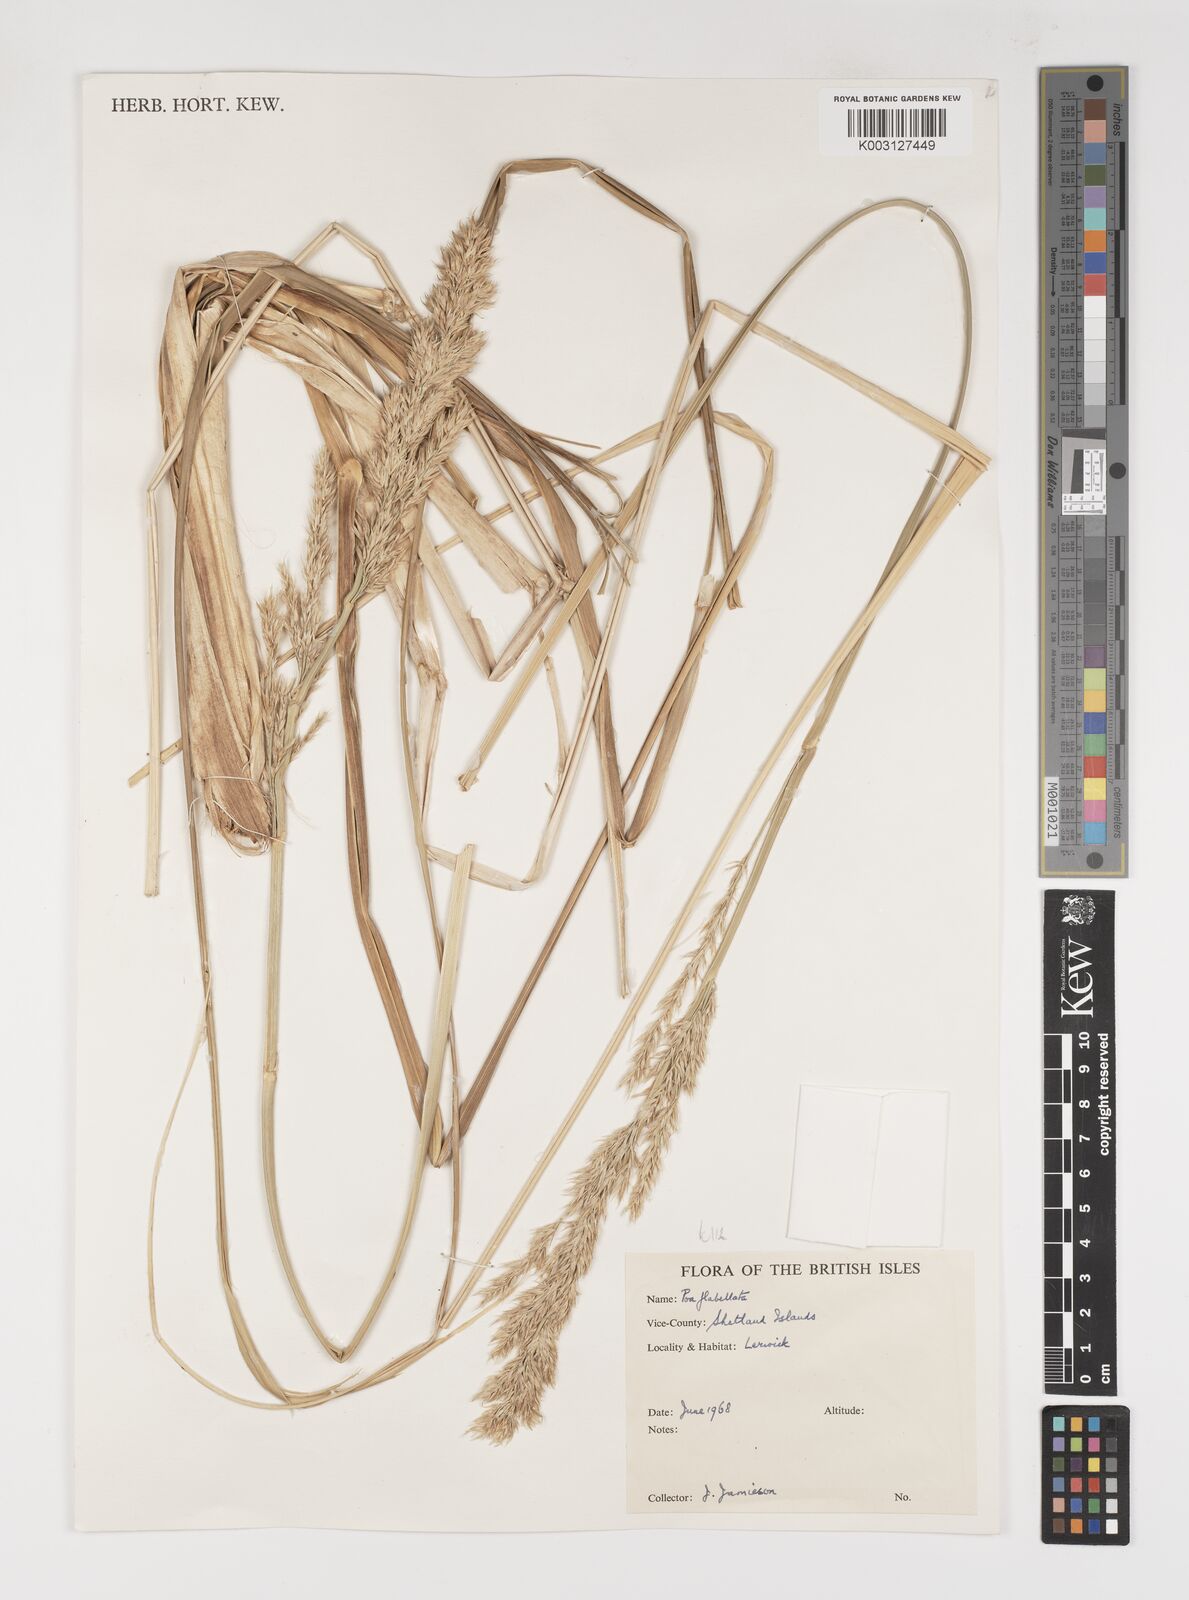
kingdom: Plantae
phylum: Tracheophyta
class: Liliopsida
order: Poales
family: Poaceae
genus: Poa
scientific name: Poa flabellata
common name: Tussac-grass
